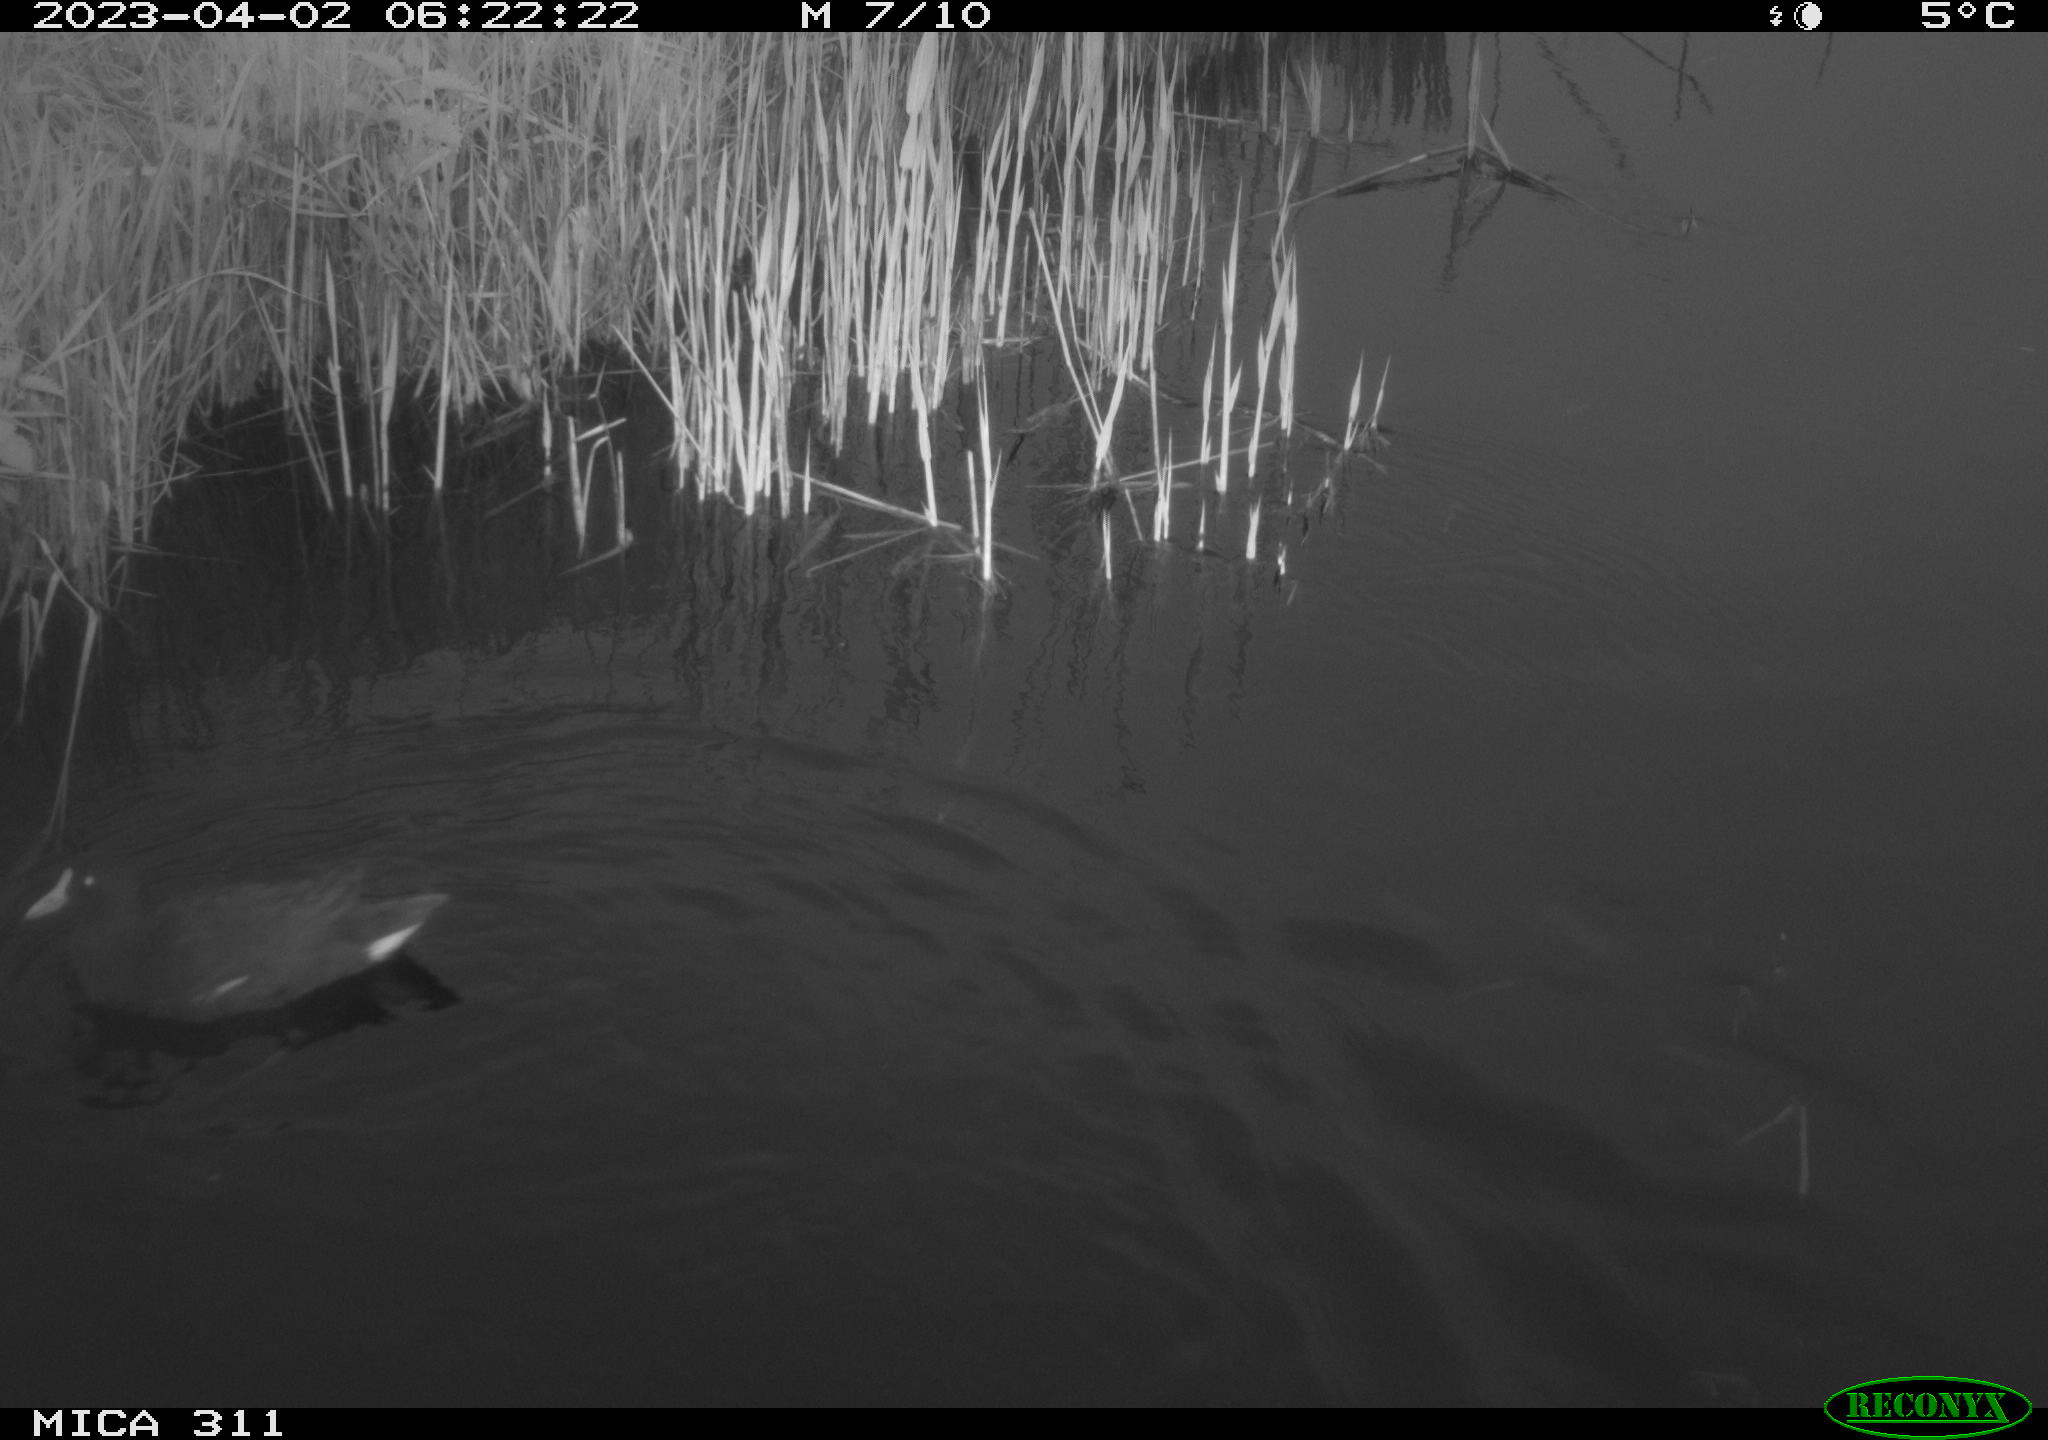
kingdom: Animalia
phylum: Chordata
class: Aves
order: Gruiformes
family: Rallidae
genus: Gallinula
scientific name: Gallinula chloropus
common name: Common moorhen
